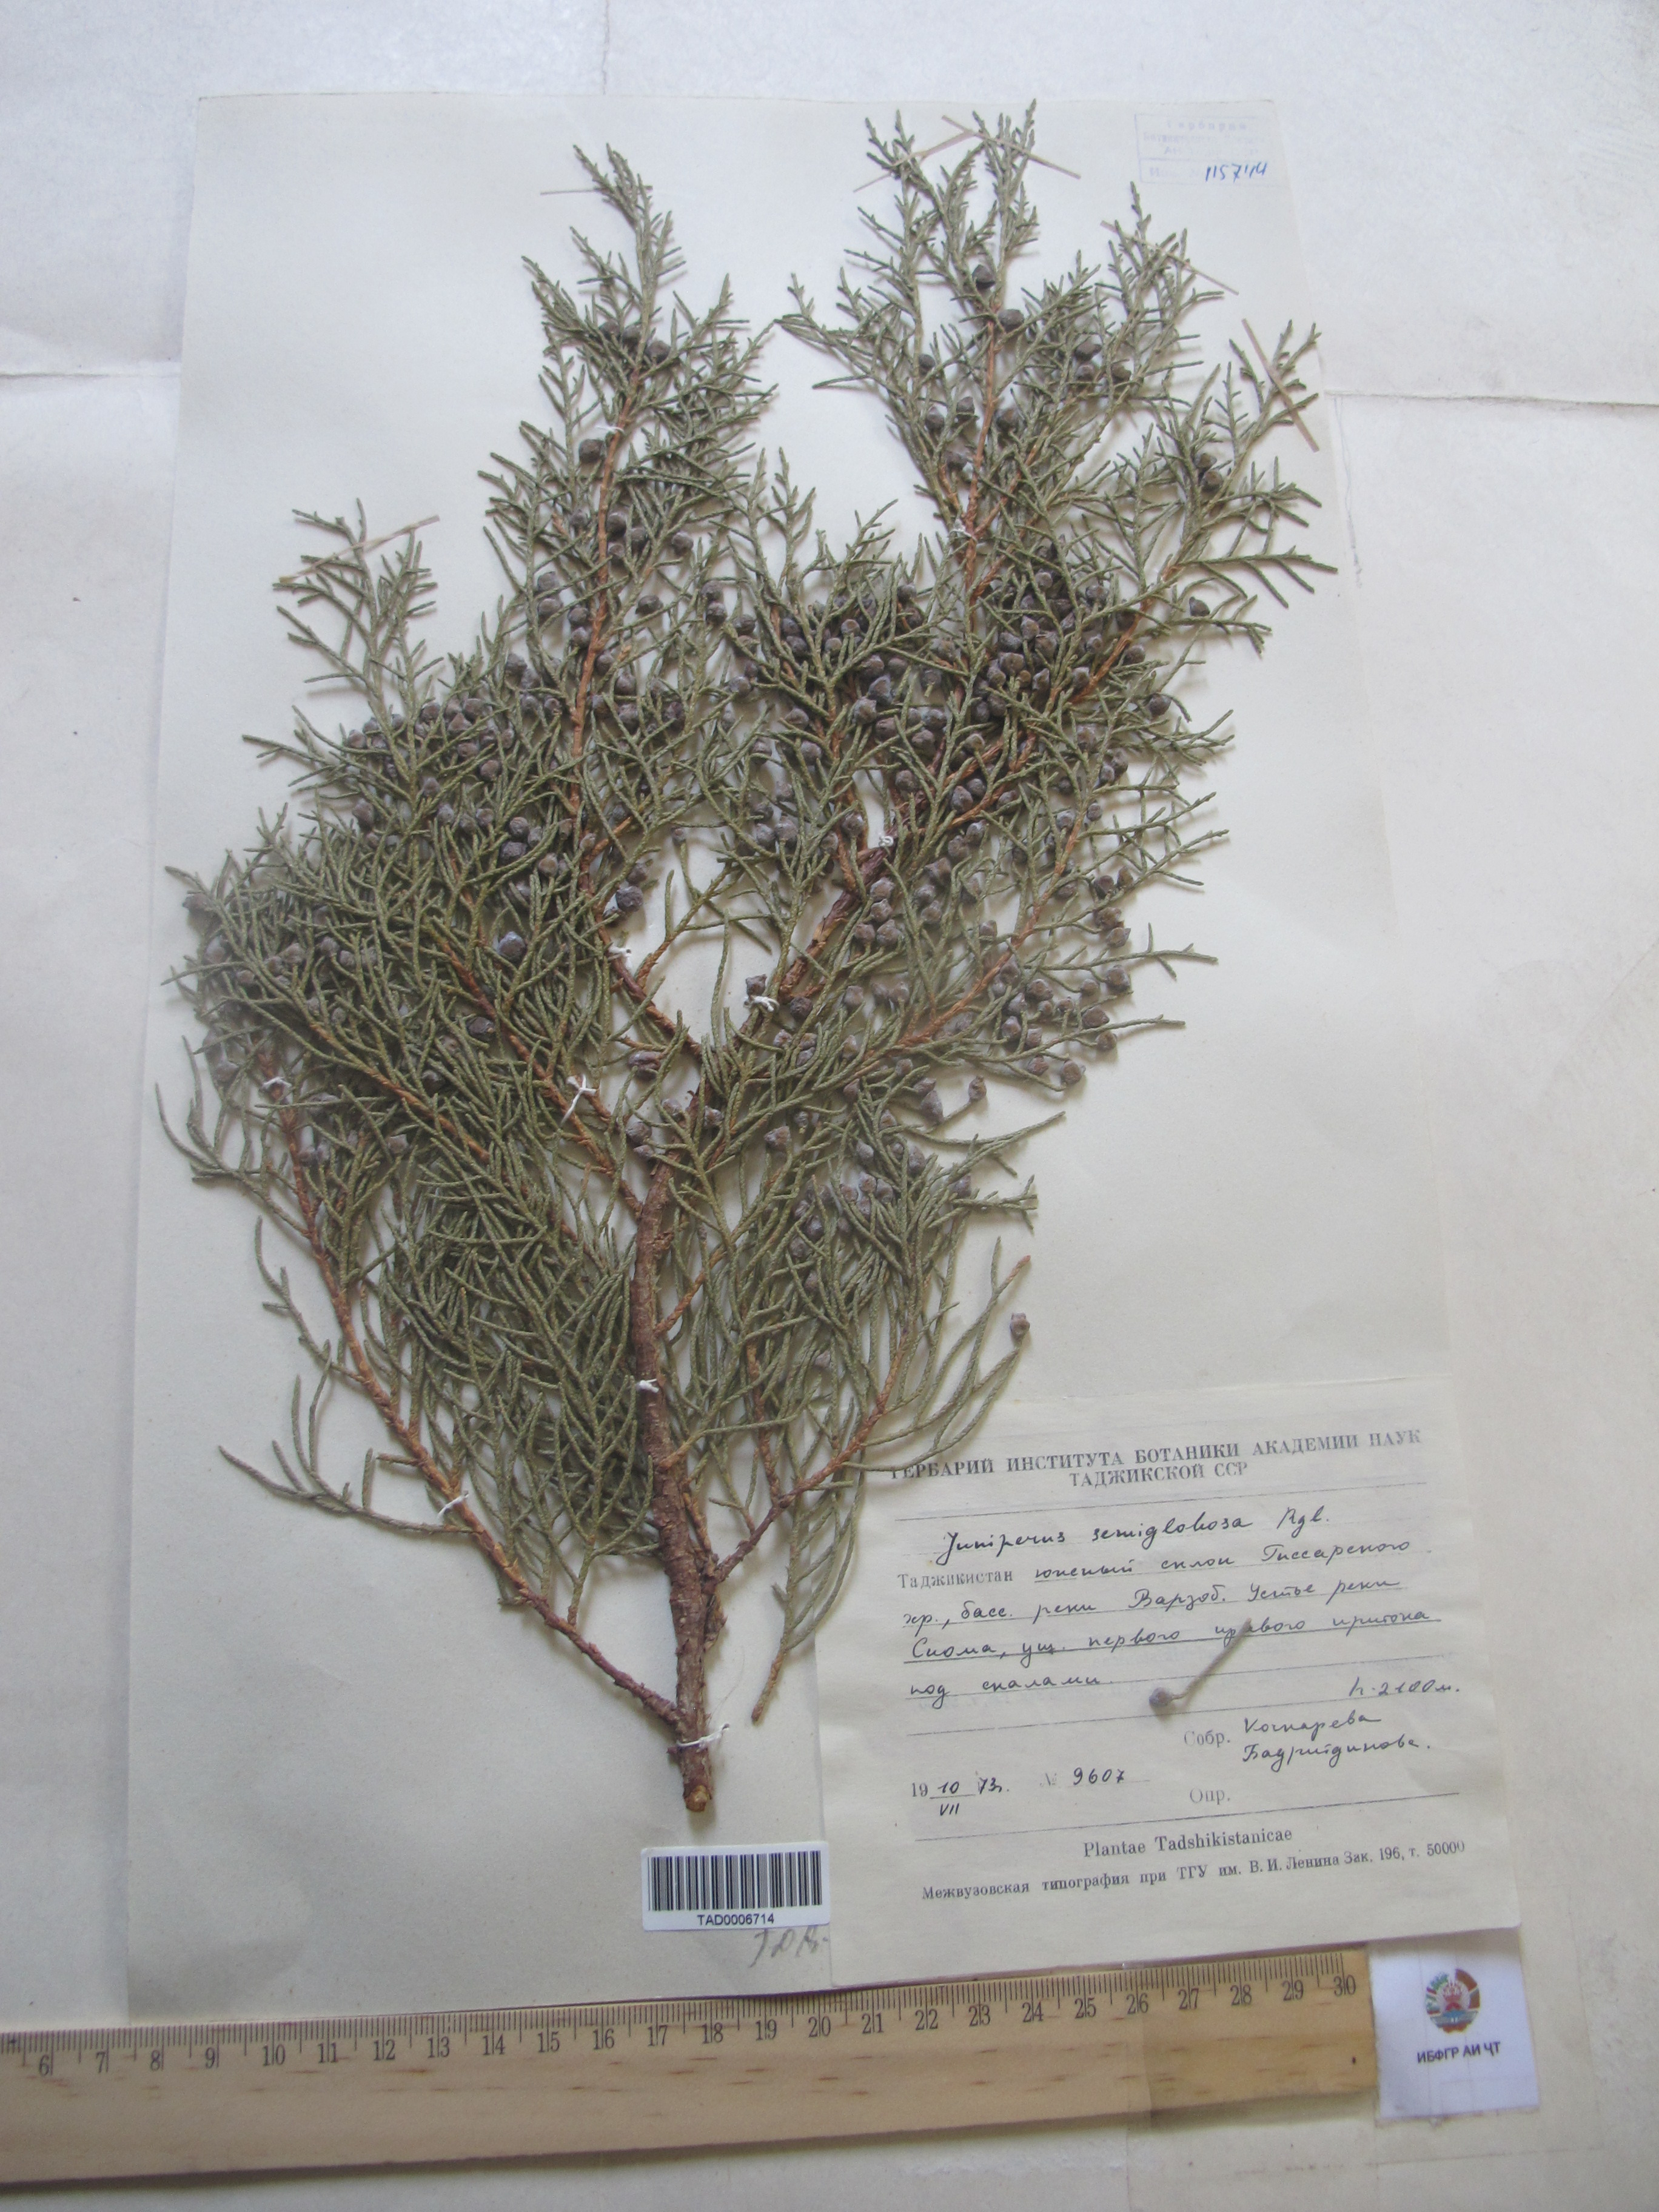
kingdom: Plantae
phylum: Tracheophyta
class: Pinopsida
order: Pinales
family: Cupressaceae
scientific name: Cupressaceae
